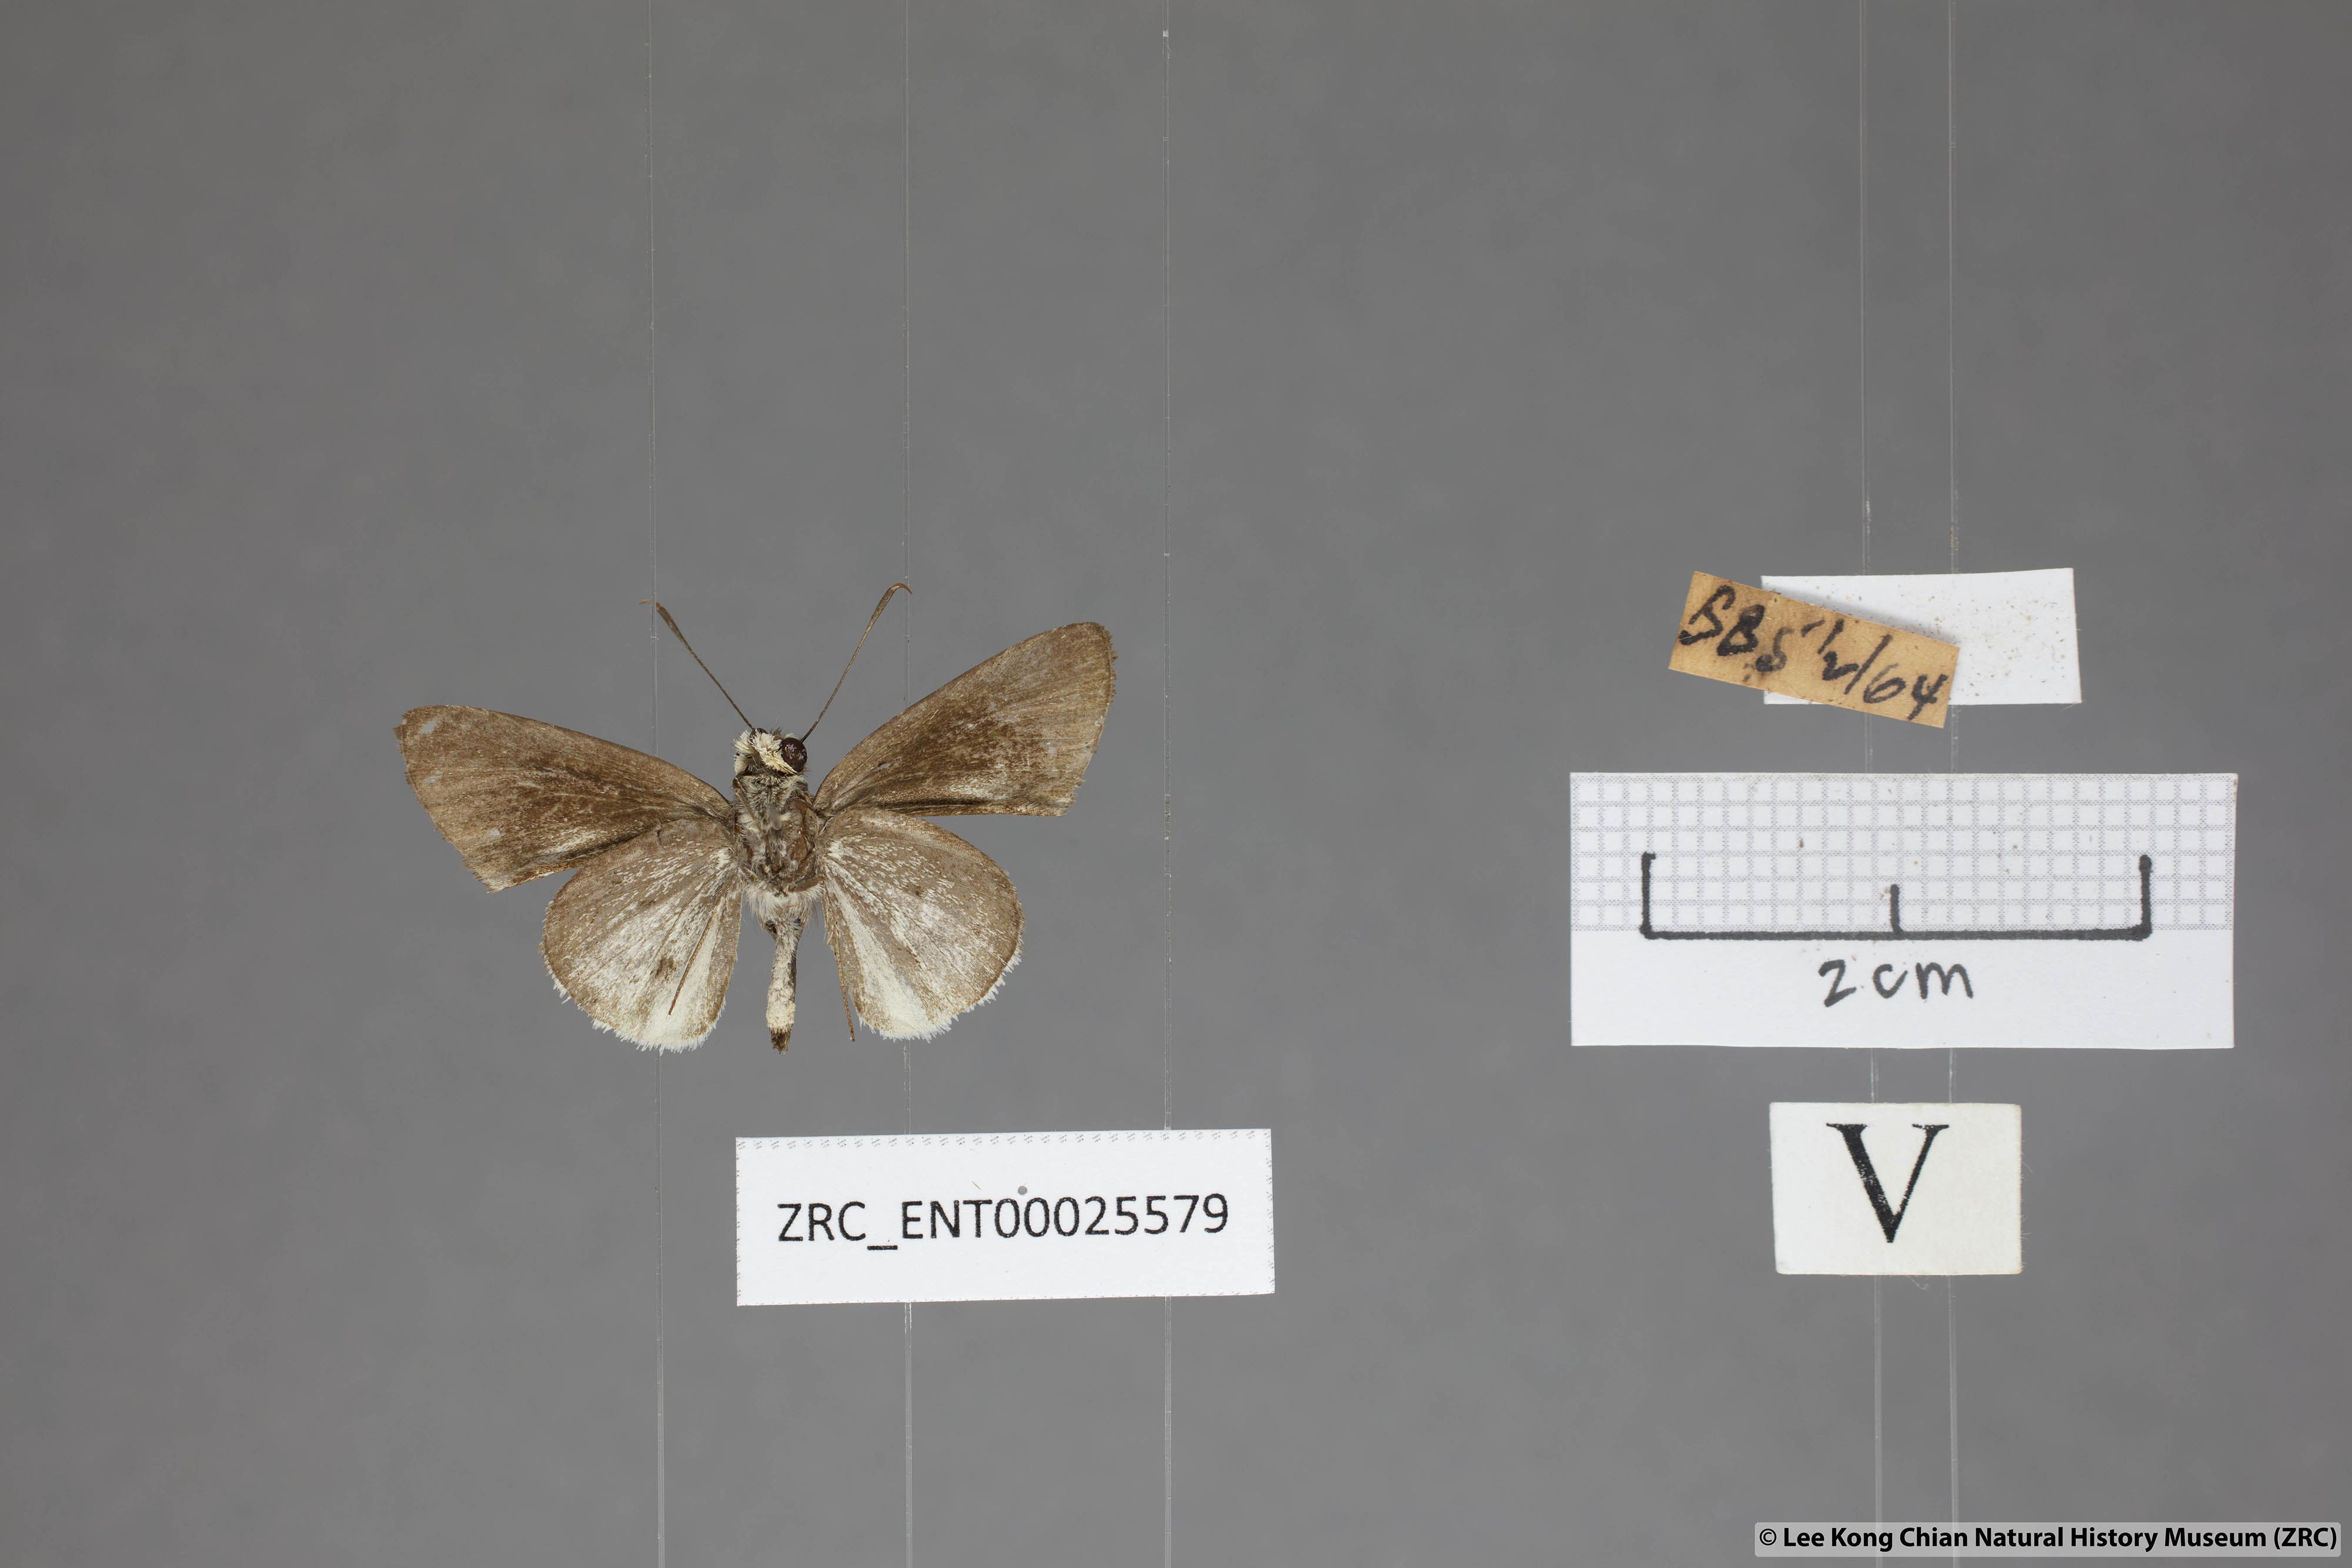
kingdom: Animalia
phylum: Arthropoda
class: Insecta
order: Lepidoptera
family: Hesperiidae
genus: Suastus
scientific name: Suastus everyx
